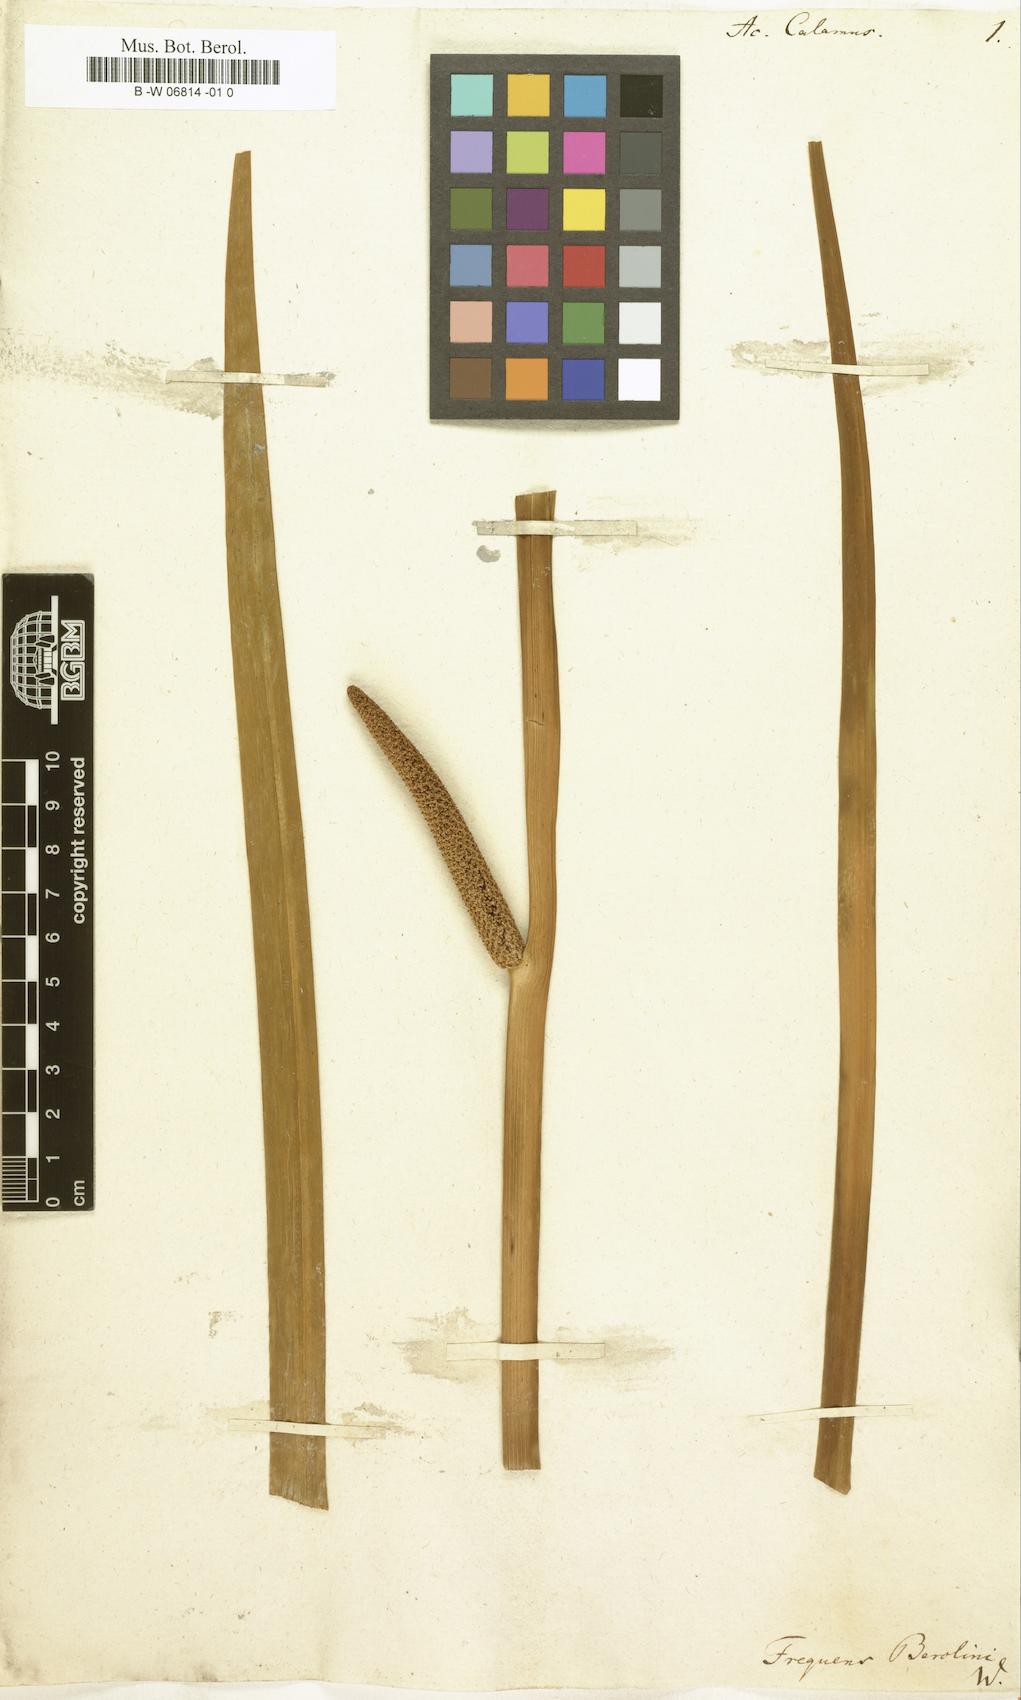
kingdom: Plantae
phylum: Tracheophyta
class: Liliopsida
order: Acorales
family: Acoraceae
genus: Acorus
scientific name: Acorus calamus
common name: Sweet-flag
